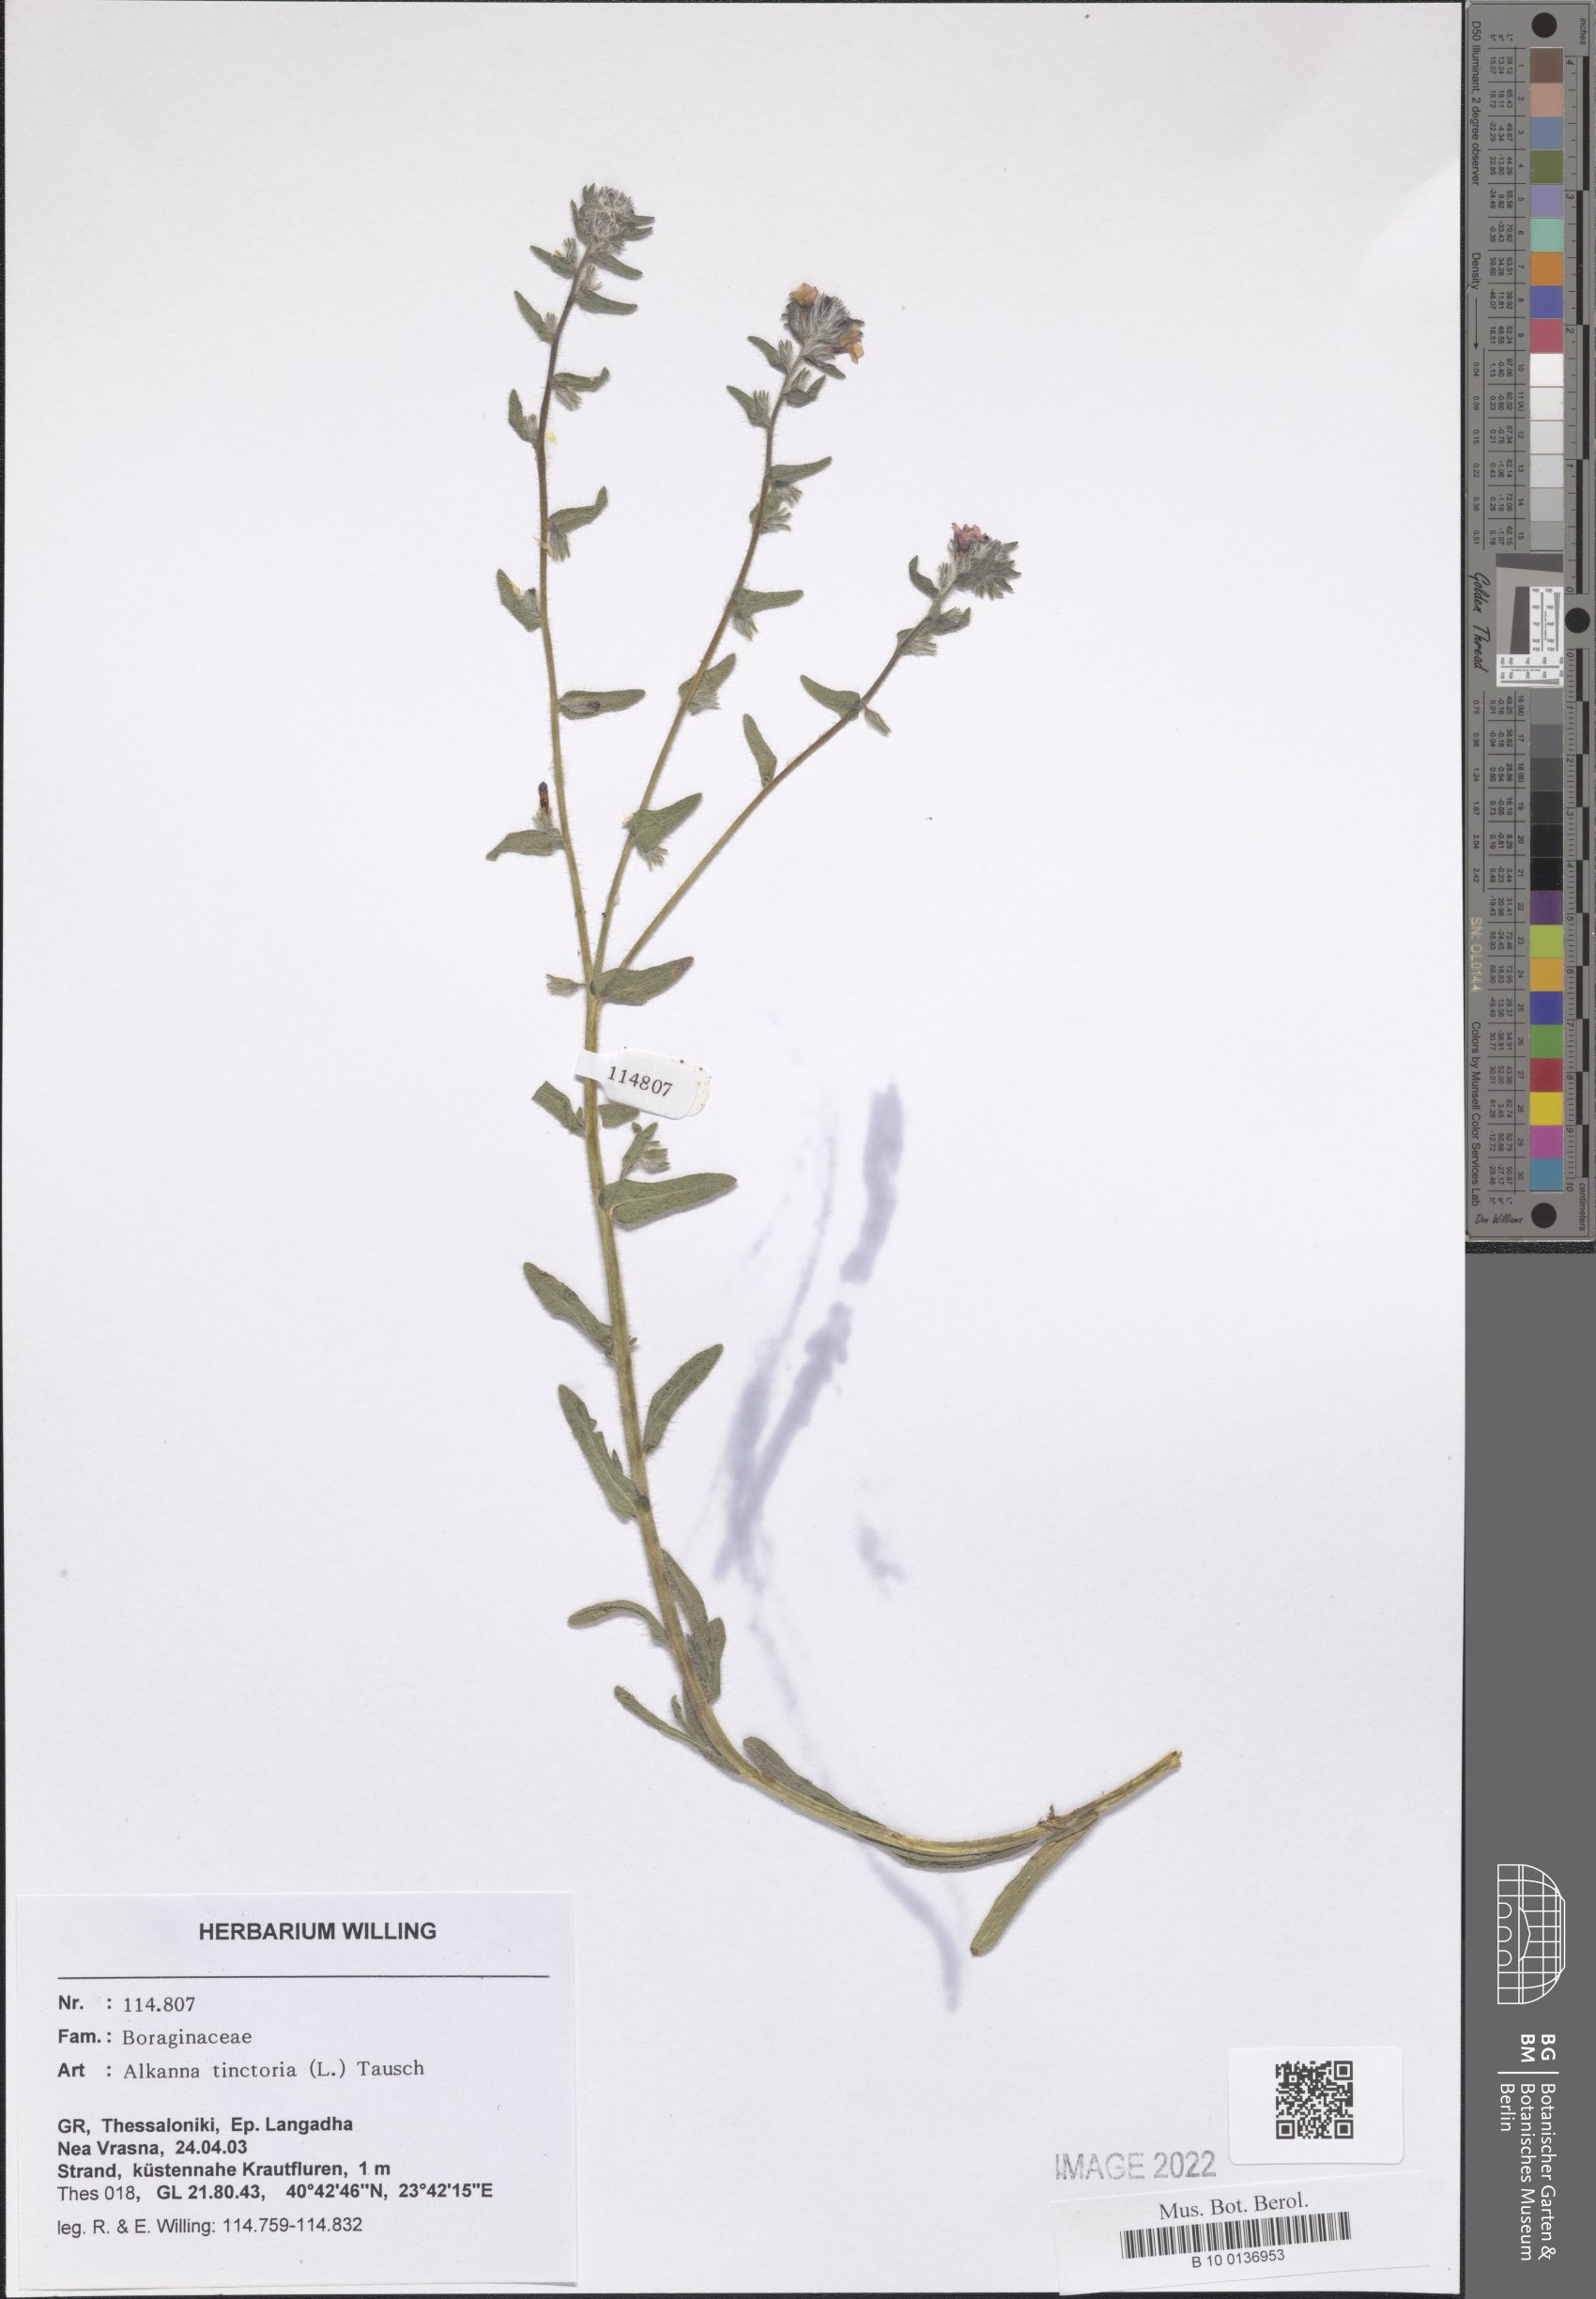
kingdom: Plantae
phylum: Tracheophyta
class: Magnoliopsida
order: Boraginales
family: Boraginaceae
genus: Alkanna
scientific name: Alkanna tinctoria
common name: Dyer's-alkanet
